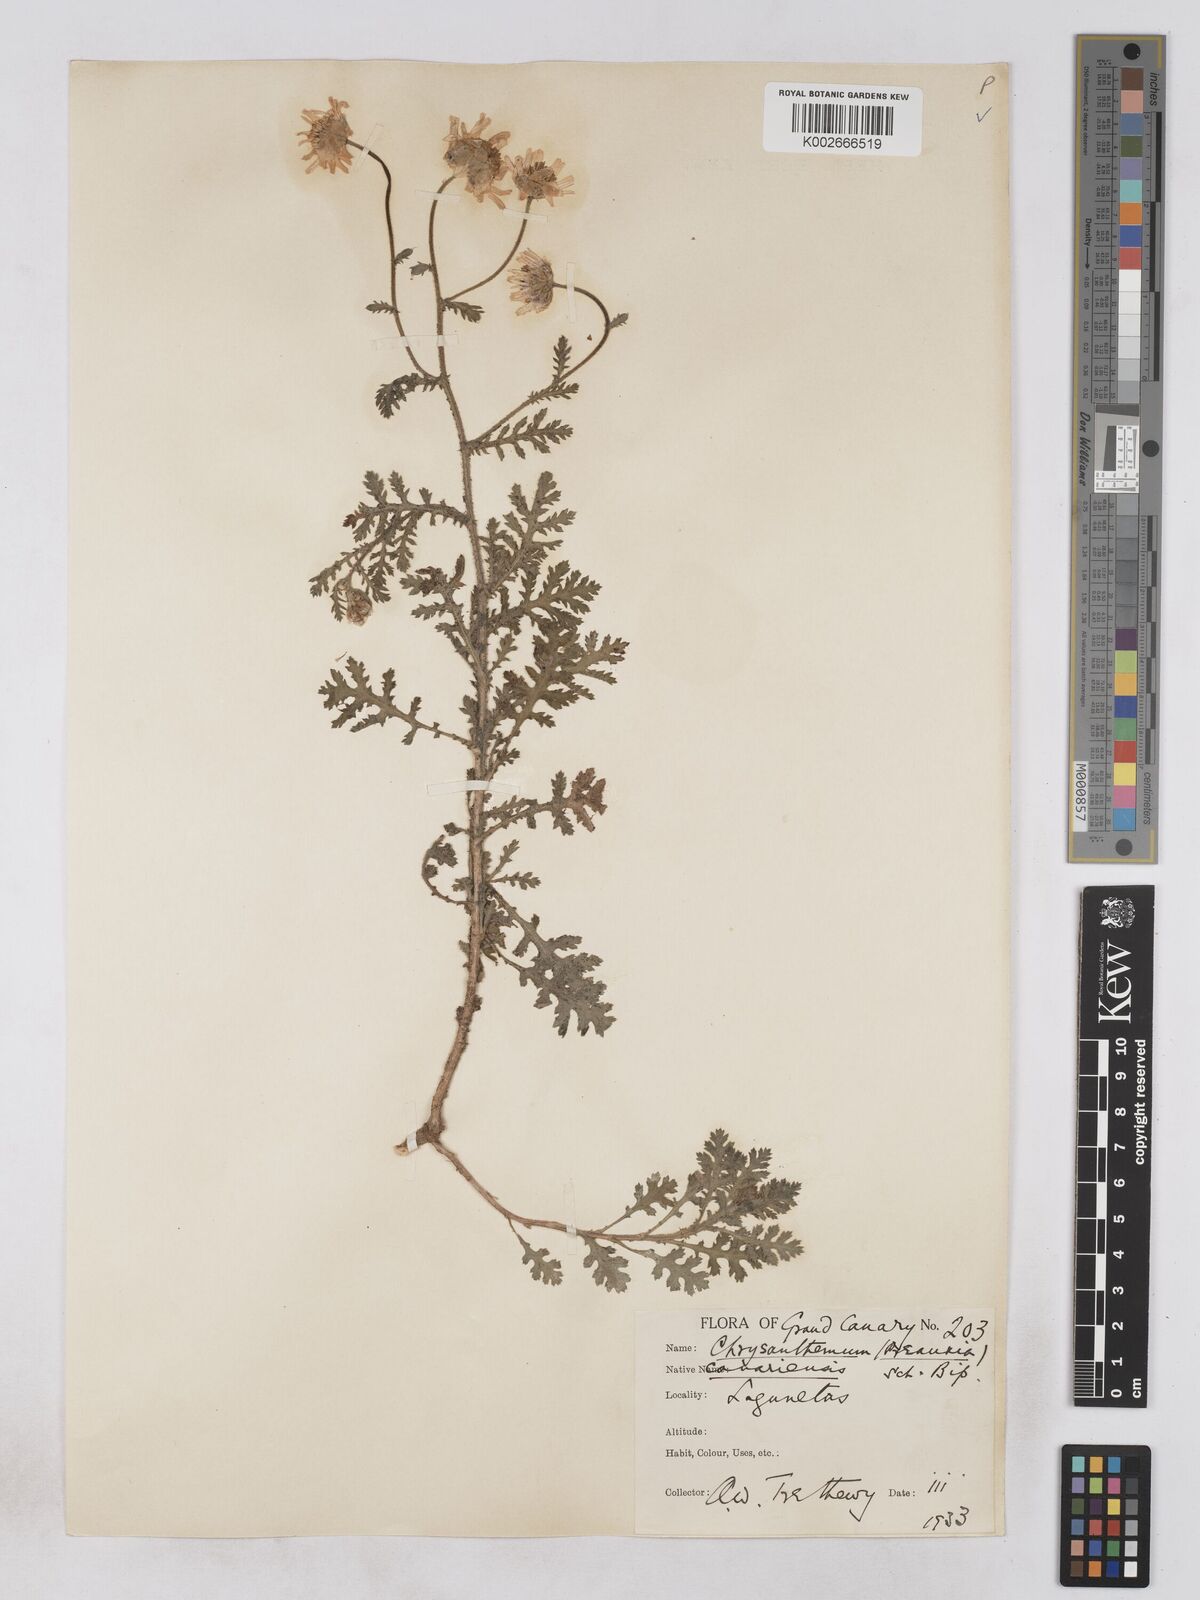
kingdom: Plantae
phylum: Tracheophyta
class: Magnoliopsida
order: Asterales
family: Asteraceae
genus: Argyranthemum
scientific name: Argyranthemum adauctum
